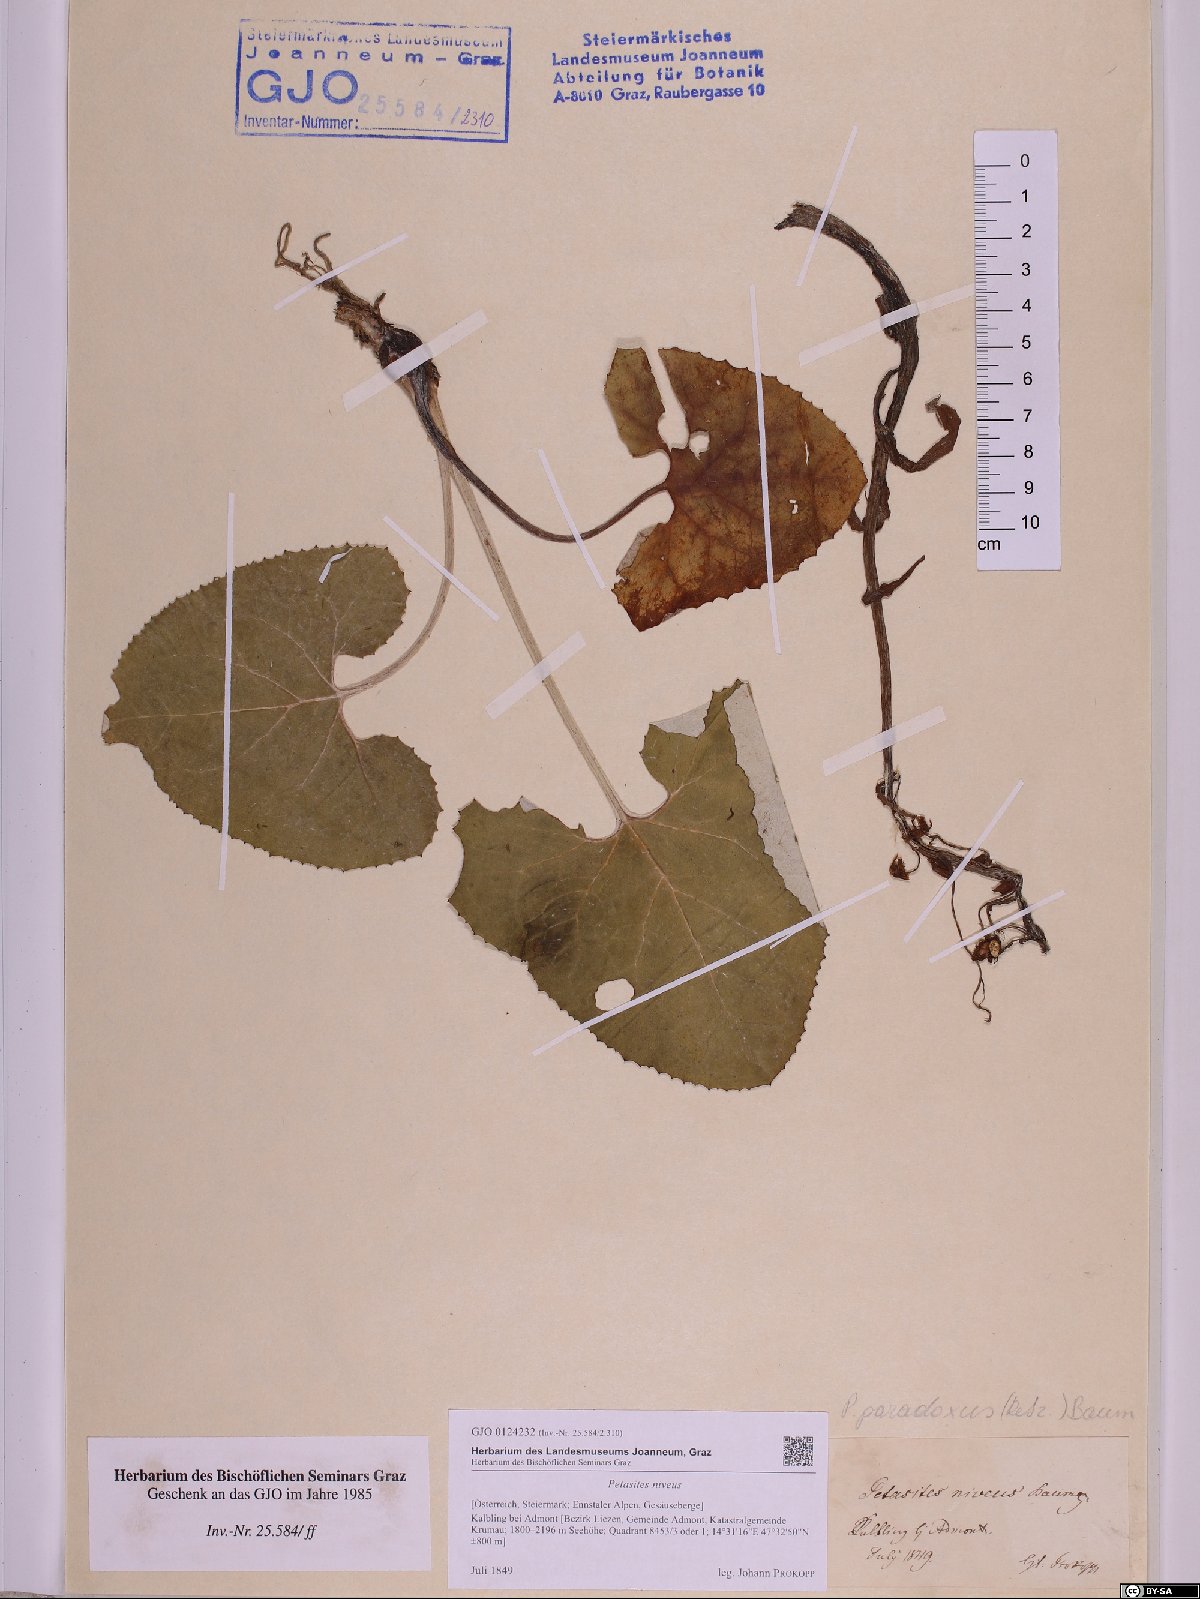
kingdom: Plantae
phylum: Tracheophyta
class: Magnoliopsida
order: Asterales
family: Asteraceae
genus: Petasites
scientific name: Petasites paradoxus
